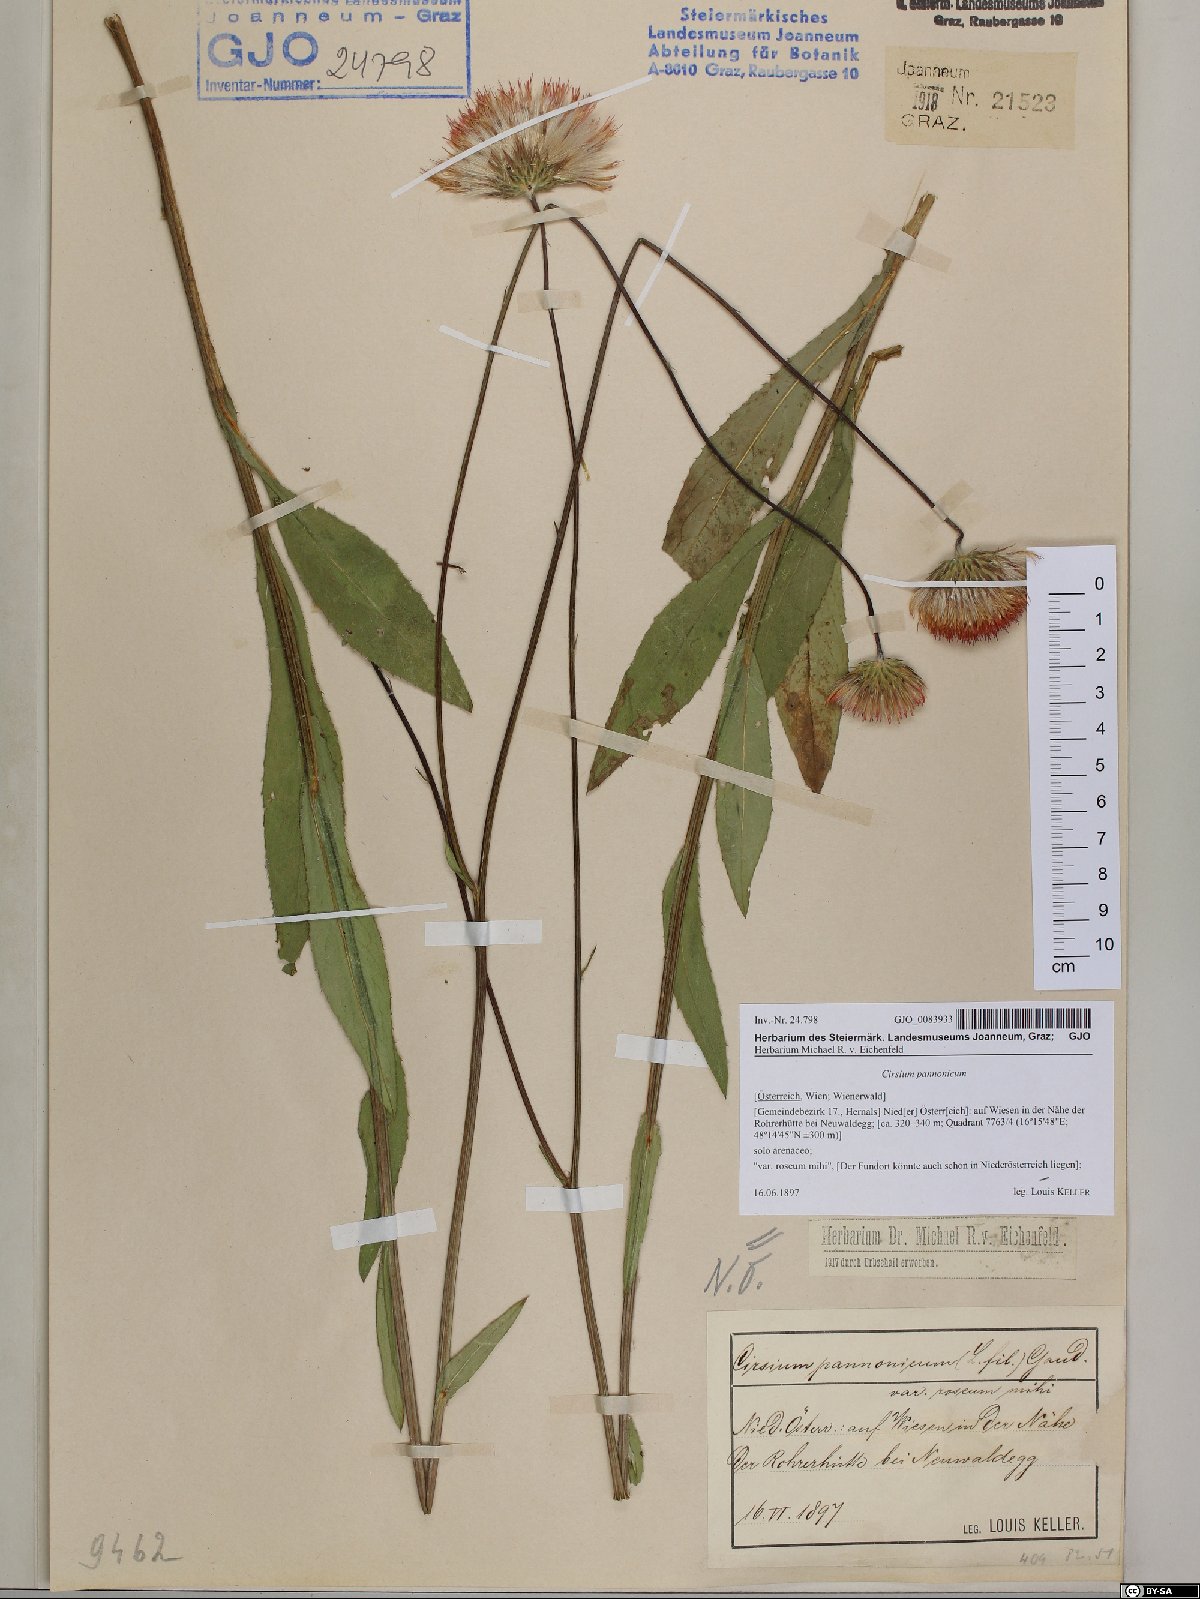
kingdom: Plantae
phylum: Tracheophyta
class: Magnoliopsida
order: Asterales
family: Asteraceae
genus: Cirsium
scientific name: Cirsium pannonicum
